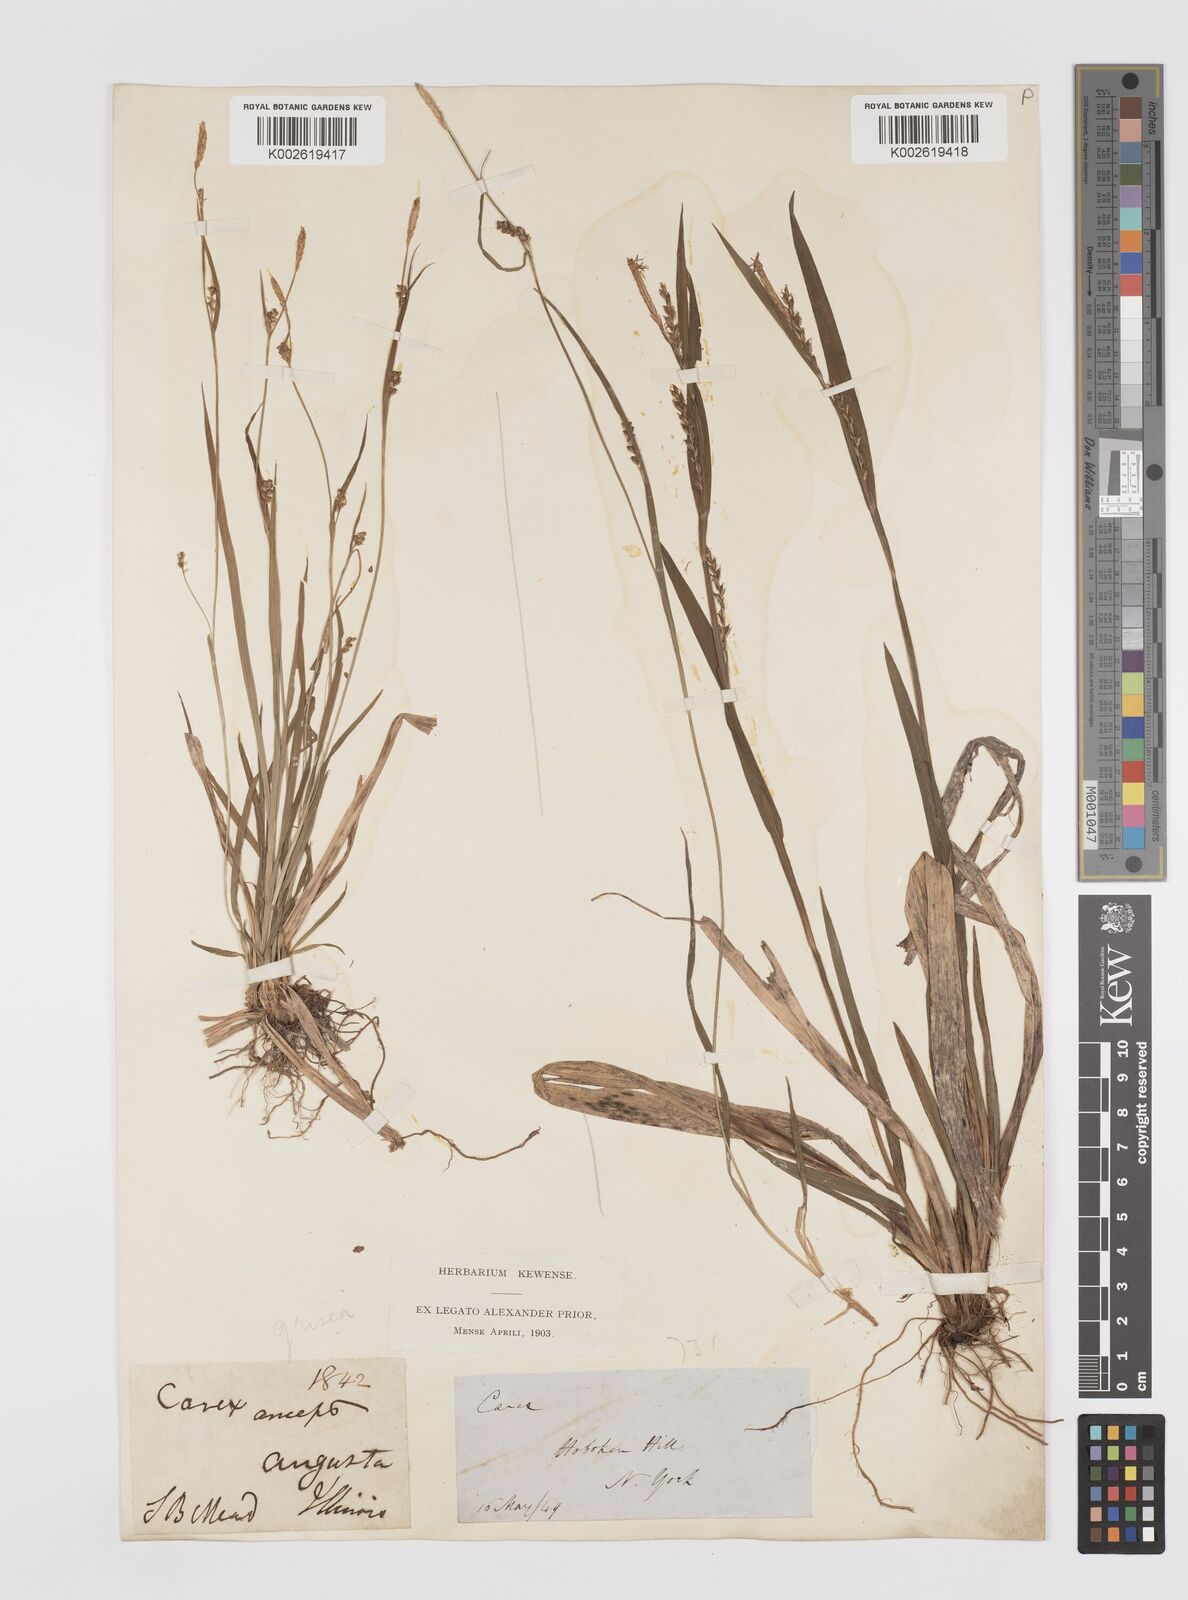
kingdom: Plantae
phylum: Tracheophyta
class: Liliopsida
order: Poales
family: Cyperaceae
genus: Carex
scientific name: Carex grisea
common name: Eastern narrow-leaved sedge
